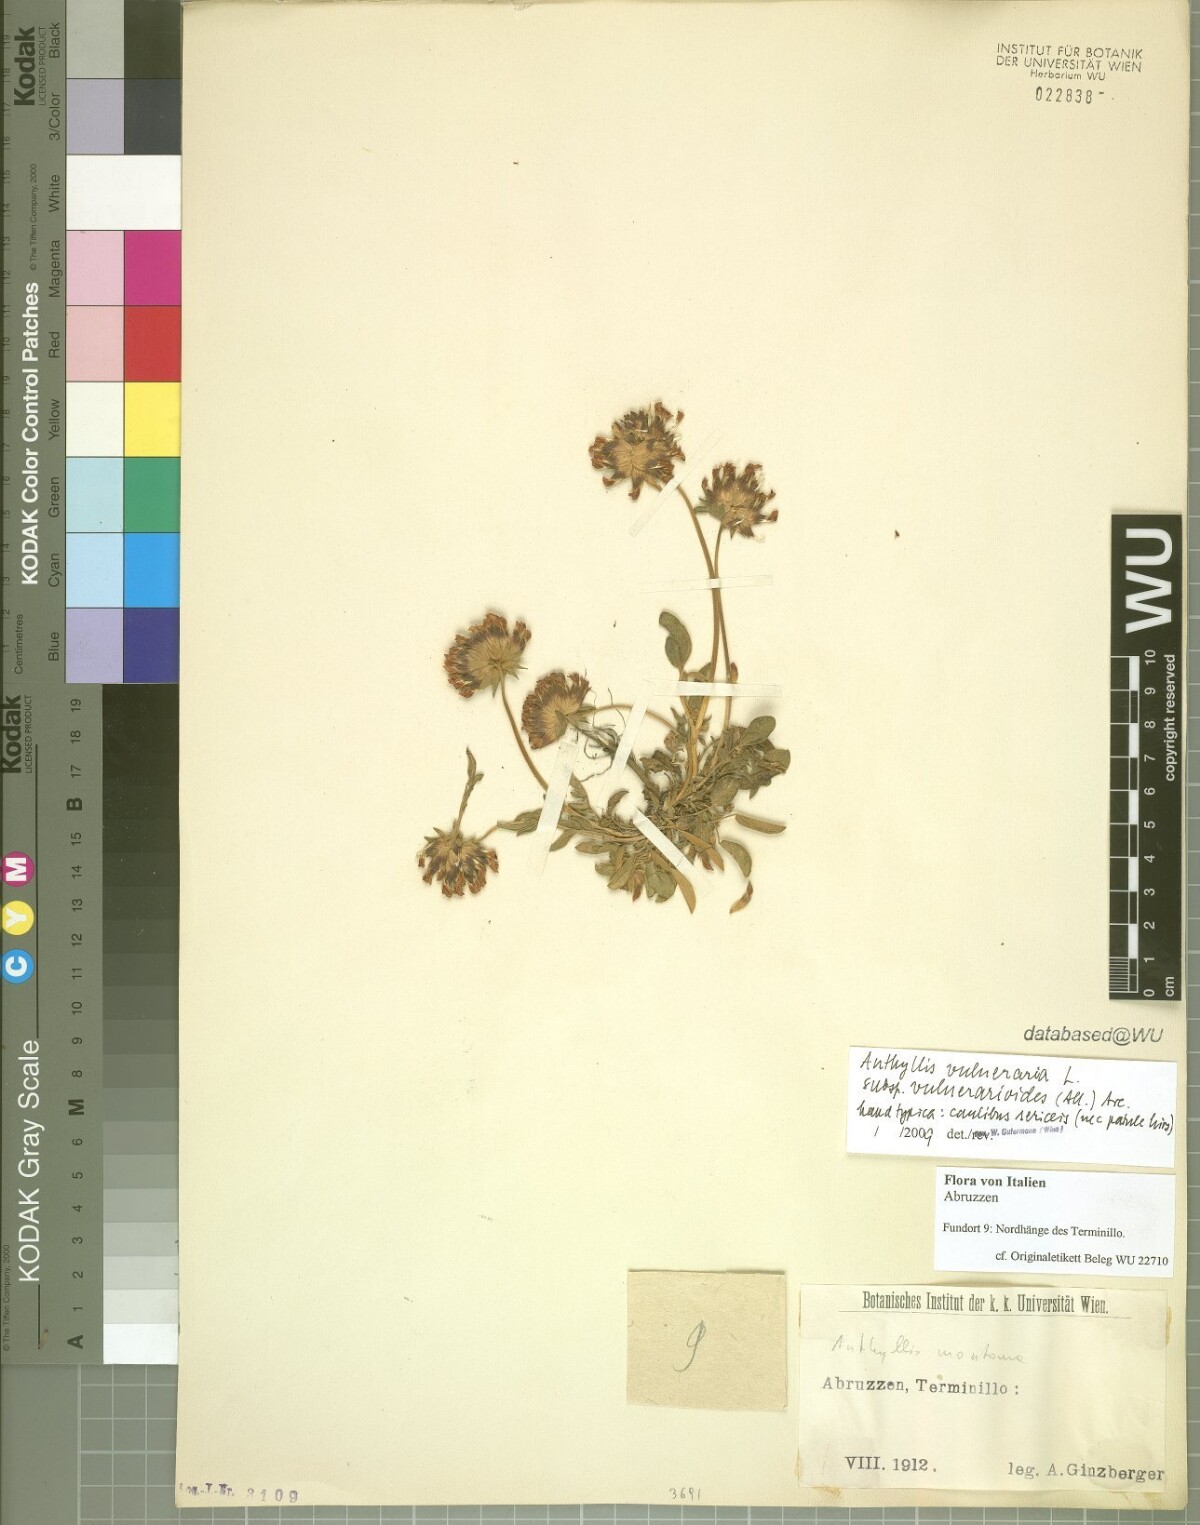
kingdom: Plantae
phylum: Tracheophyta
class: Magnoliopsida
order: Fabales
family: Fabaceae
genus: Anthyllis
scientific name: Anthyllis vulneraria
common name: Kidney vetch
